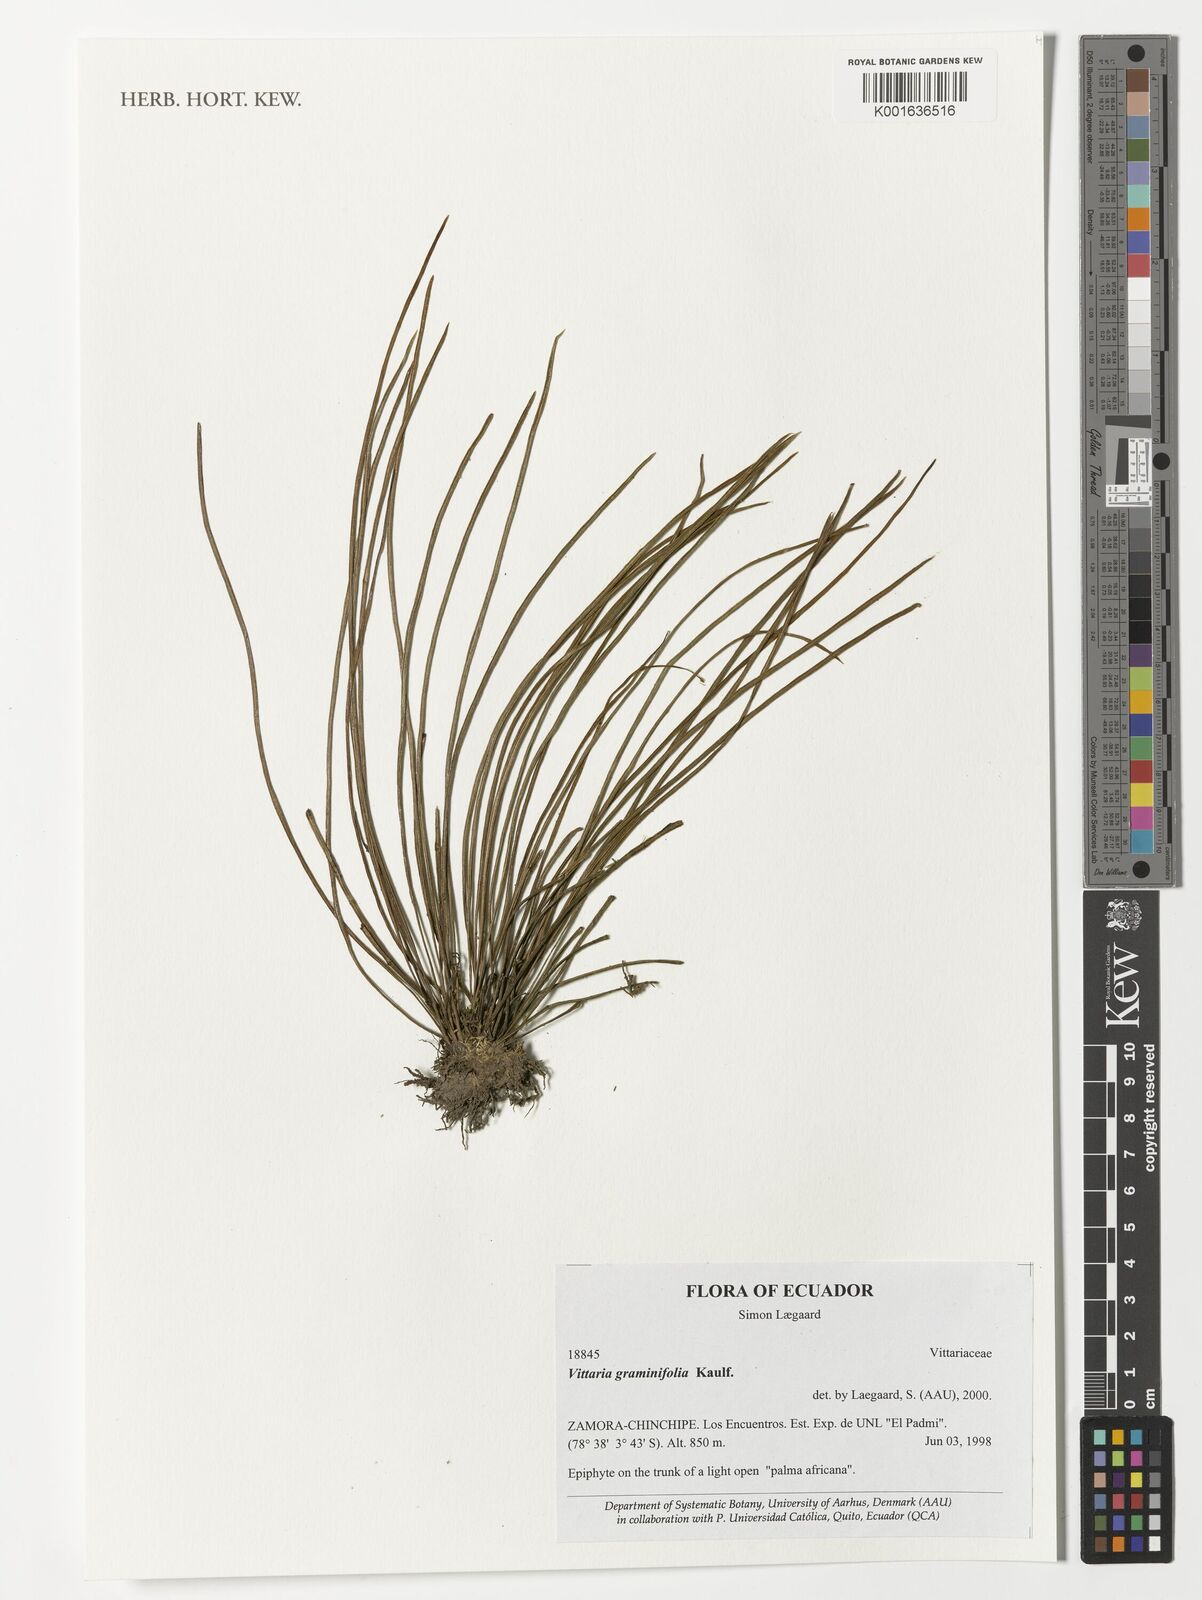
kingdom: Plantae
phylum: Tracheophyta
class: Polypodiopsida
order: Polypodiales
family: Pteridaceae
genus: Vittaria
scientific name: Vittaria graminifolia
